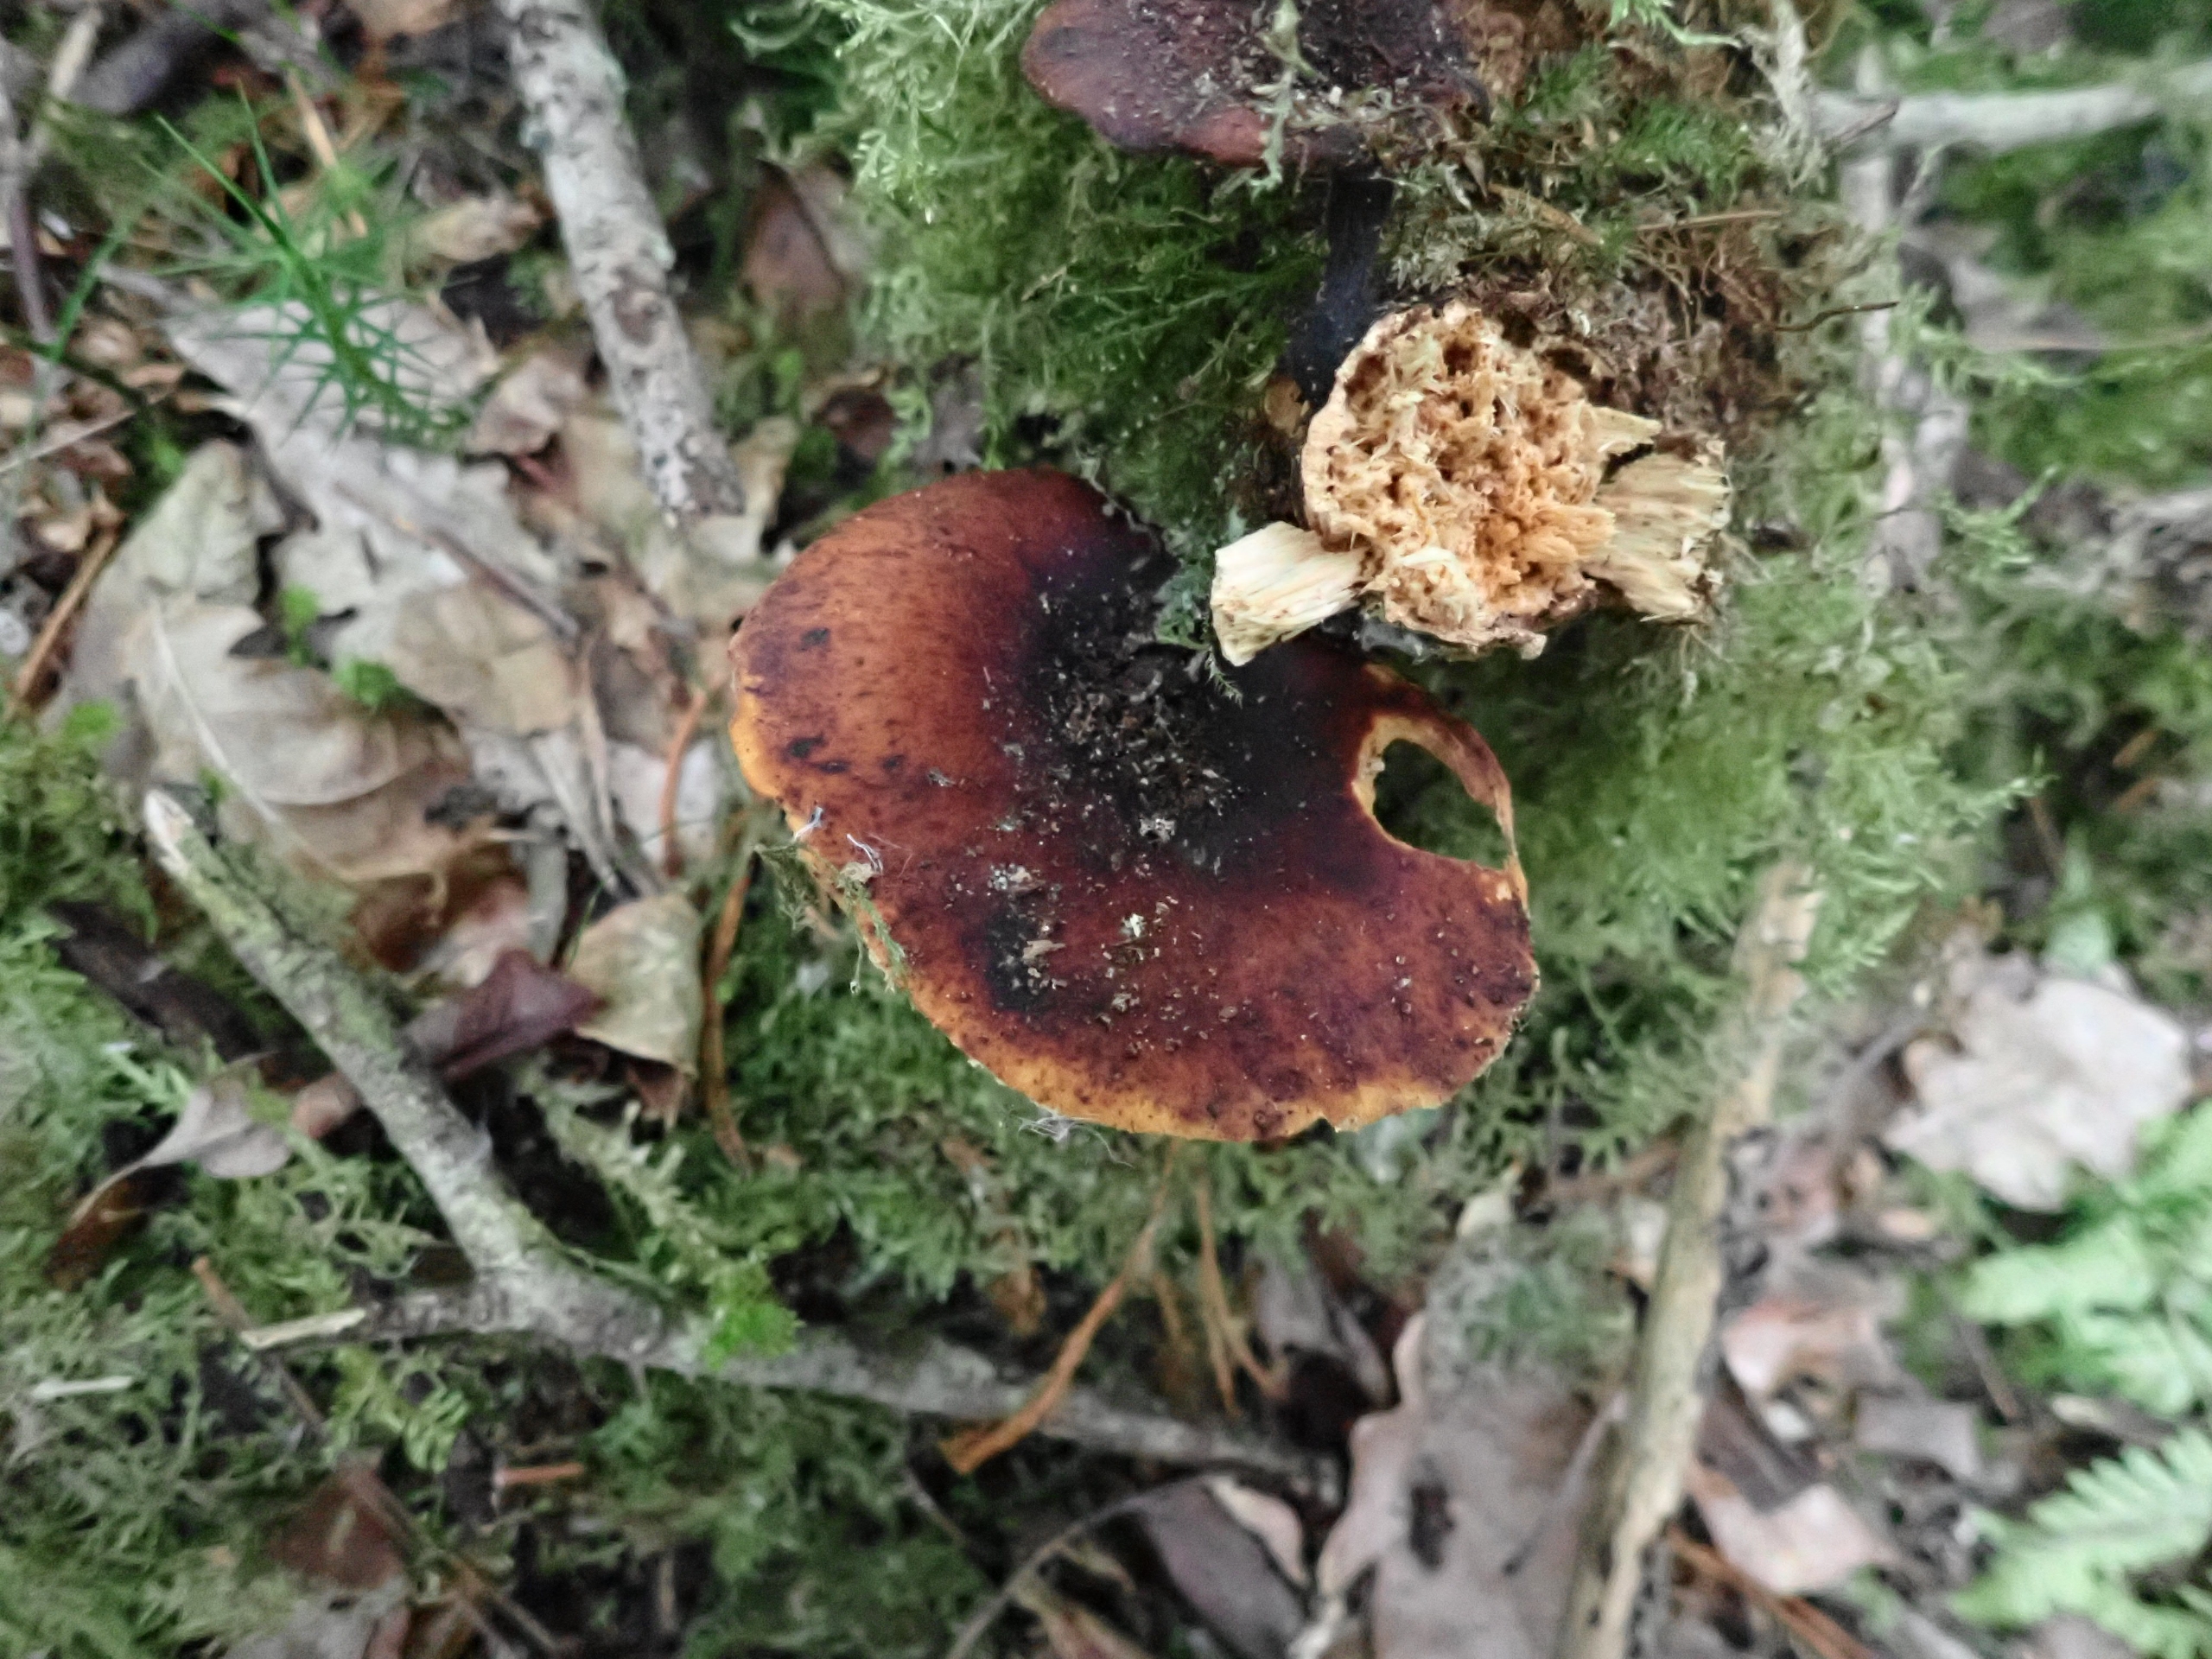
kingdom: Fungi
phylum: Basidiomycota
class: Agaricomycetes
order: Polyporales
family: Polyporaceae
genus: Picipes
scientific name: Picipes tubaeformis
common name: Trompet-stilkporesvamp
